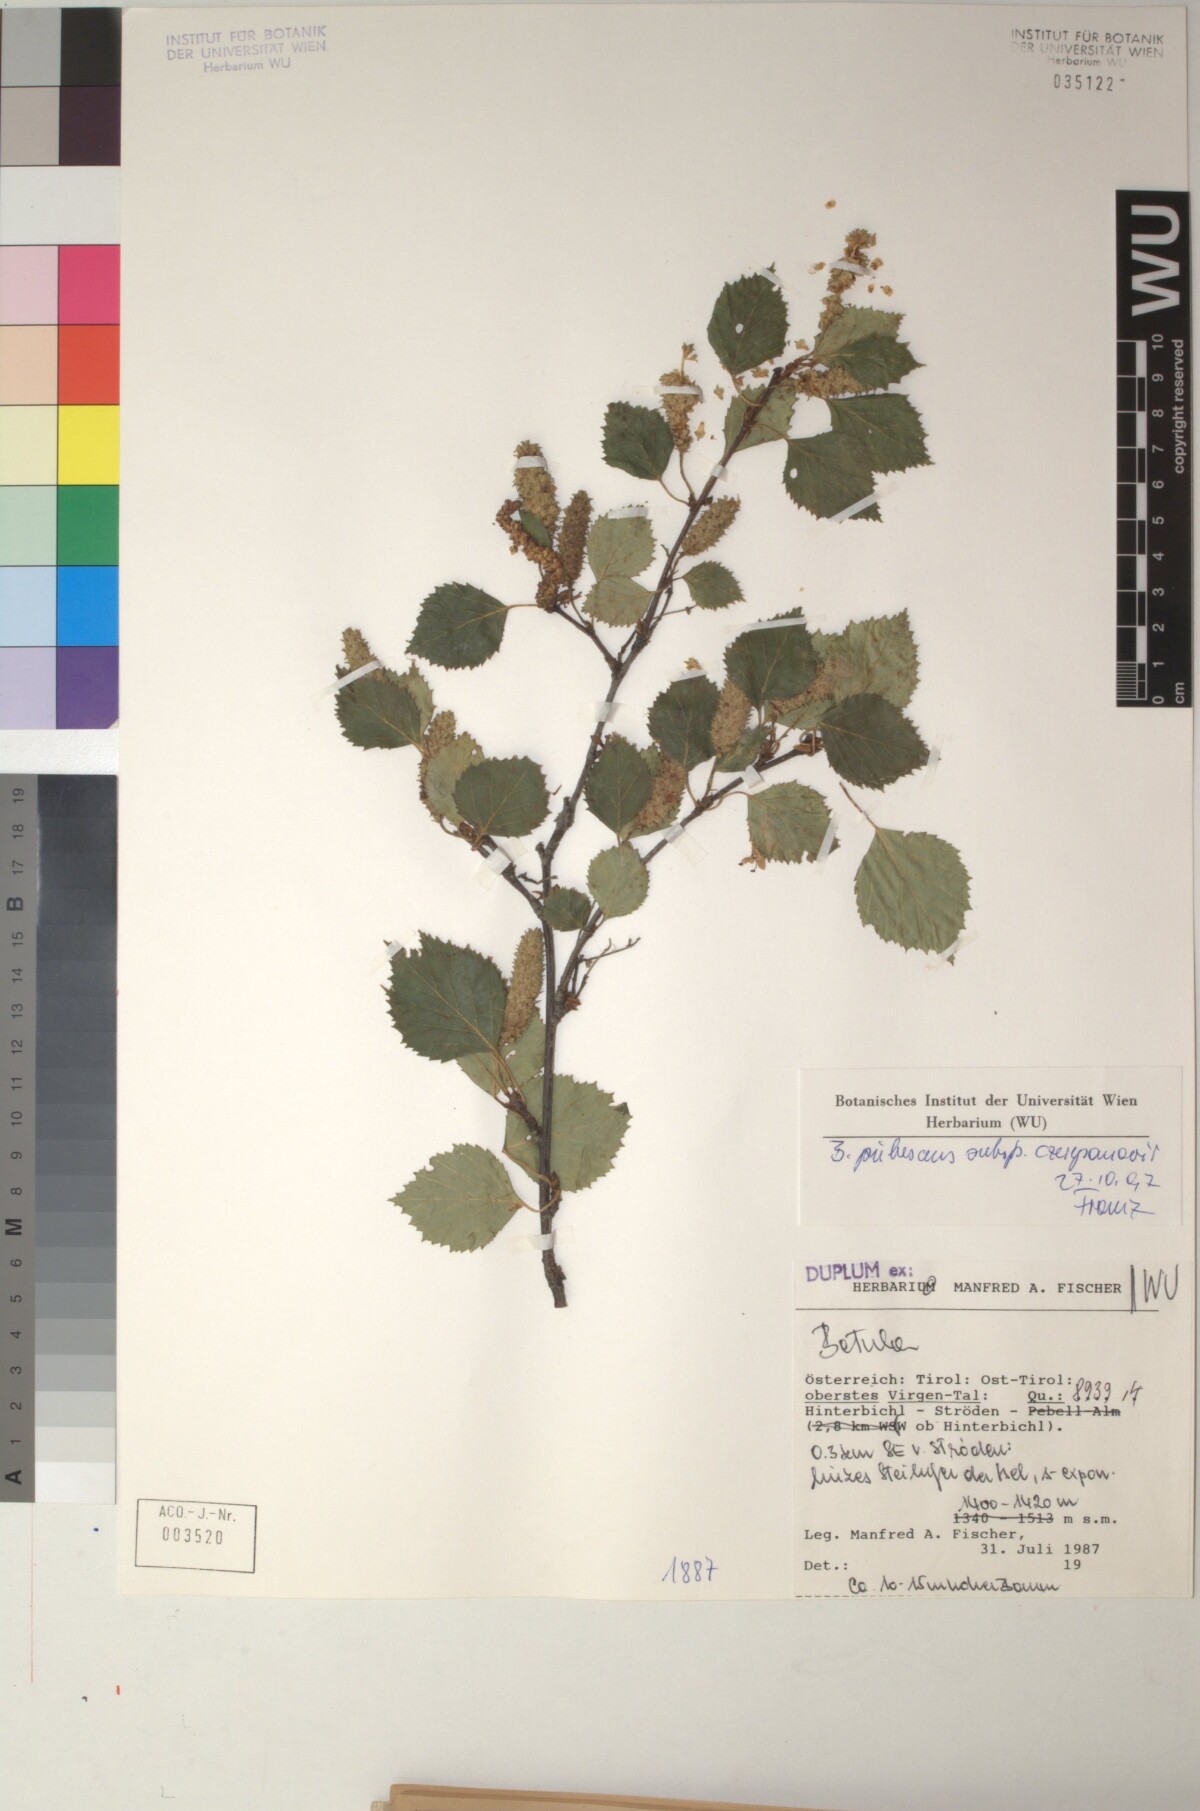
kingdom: Plantae
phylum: Tracheophyta
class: Magnoliopsida
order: Fagales
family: Betulaceae
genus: Betula
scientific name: Betula pubescens
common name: Downy birch
